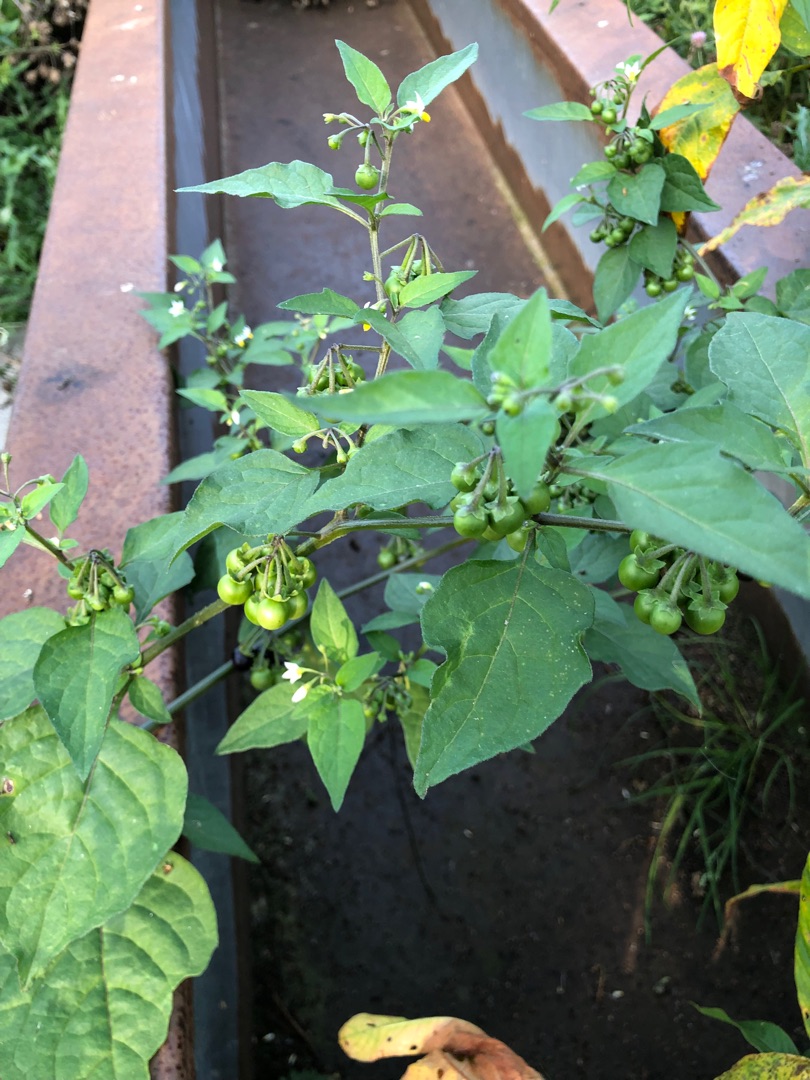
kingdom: Plantae
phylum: Tracheophyta
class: Magnoliopsida
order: Solanales
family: Solanaceae
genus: Solanum
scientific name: Solanum nigrum
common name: Sort natskygge
